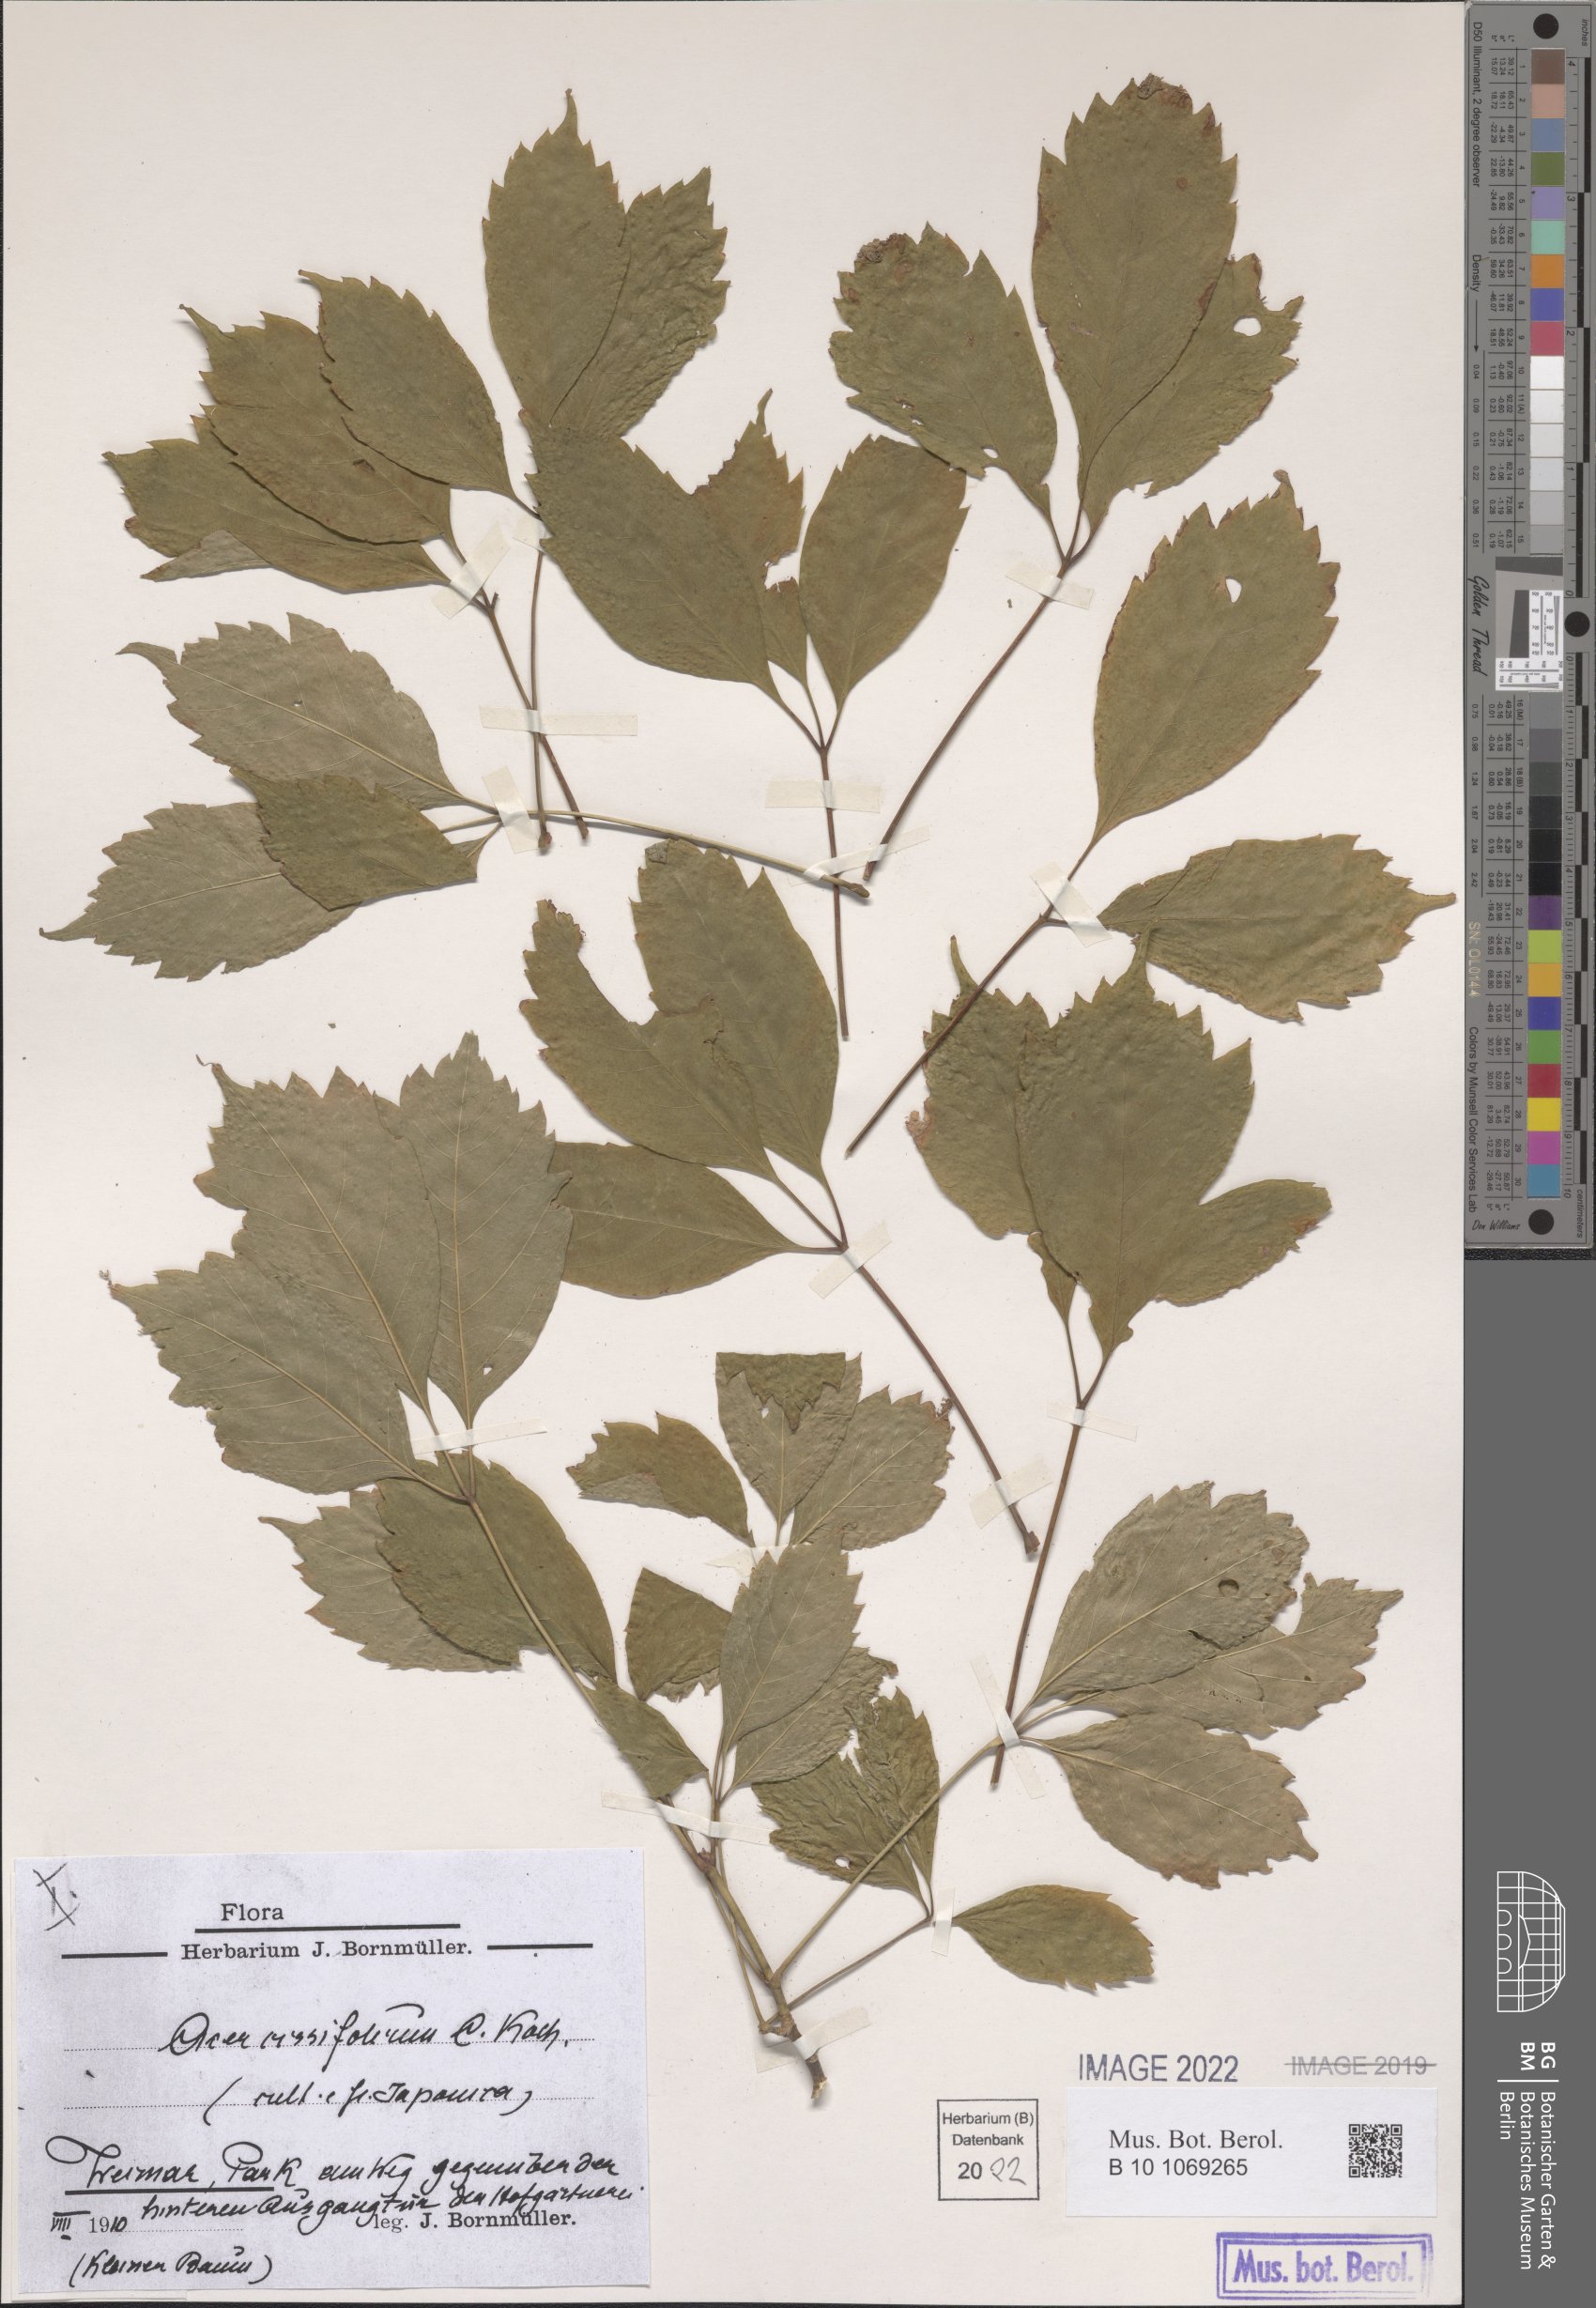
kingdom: Plantae
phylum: Tracheophyta
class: Magnoliopsida
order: Sapindales
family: Sapindaceae
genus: Acer
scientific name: Acer cissifolium
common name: Ivyleaf maple
